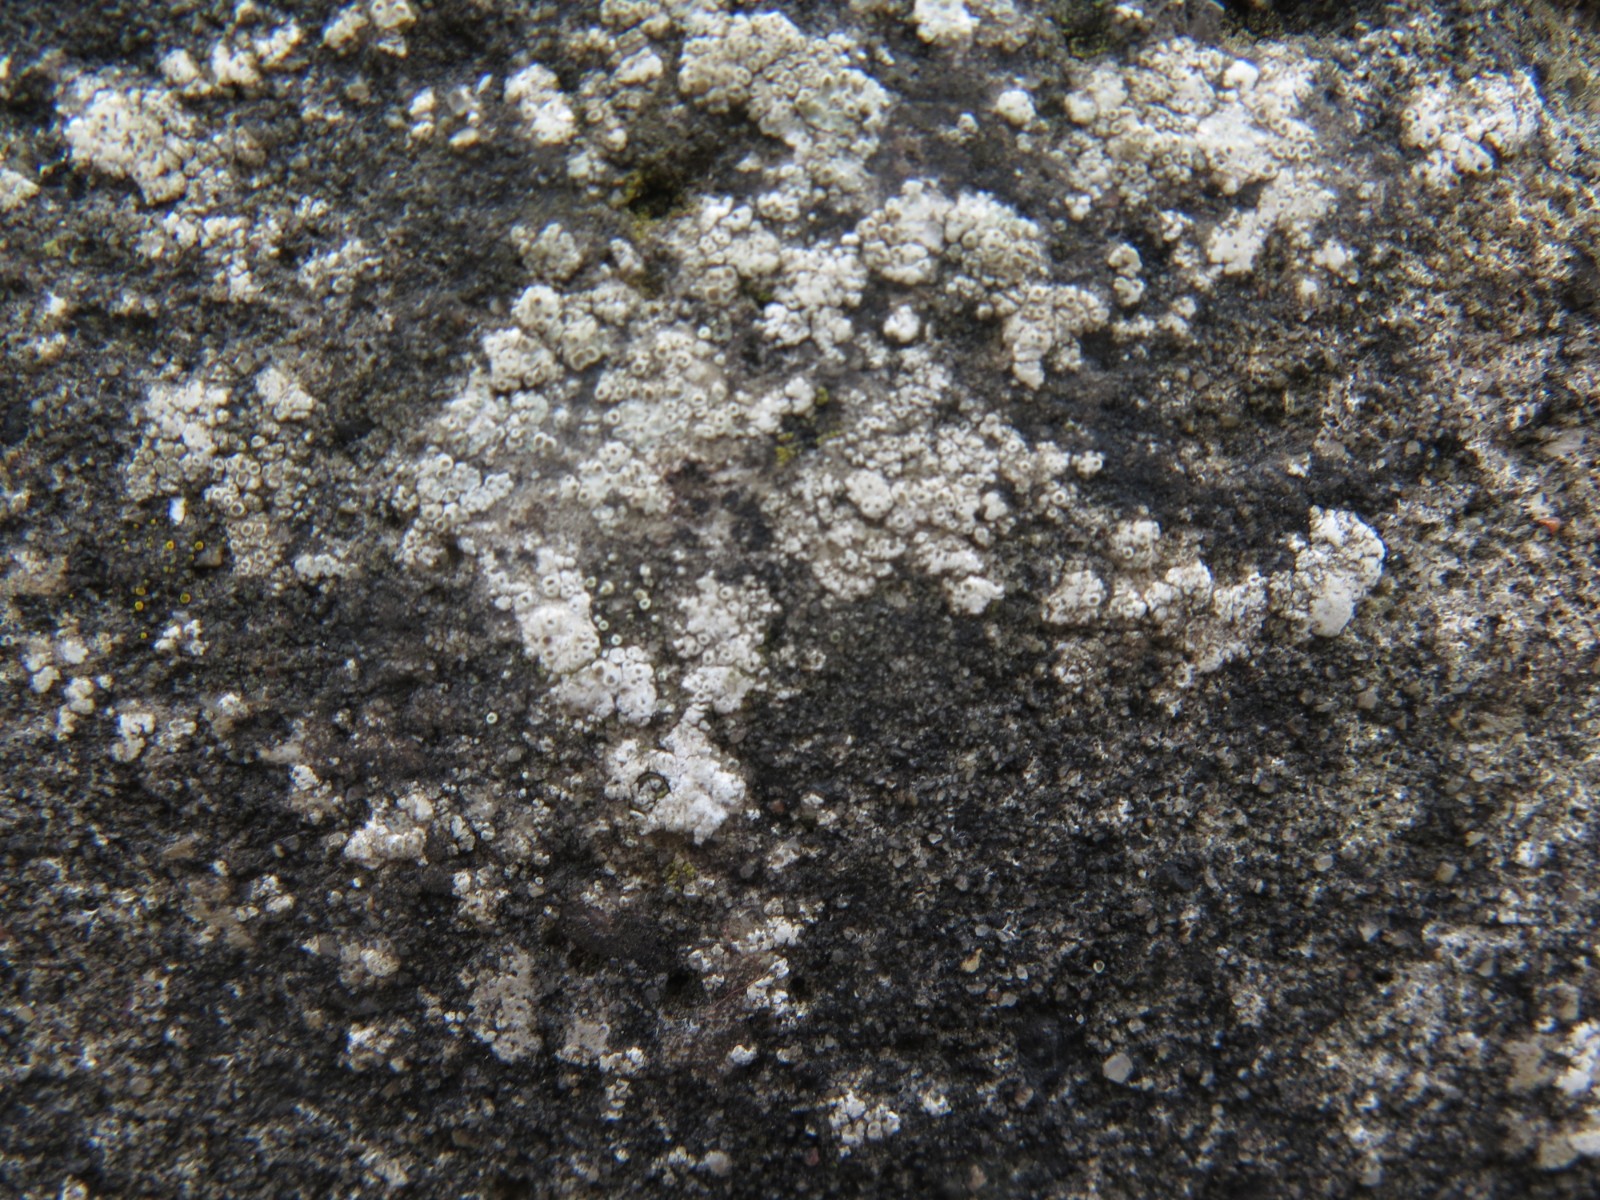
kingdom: Fungi
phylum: Ascomycota
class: Lecanoromycetes
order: Lecanorales
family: Lecanoraceae
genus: Polyozosia
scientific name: Polyozosia albescens
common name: cement-kantskivelav
